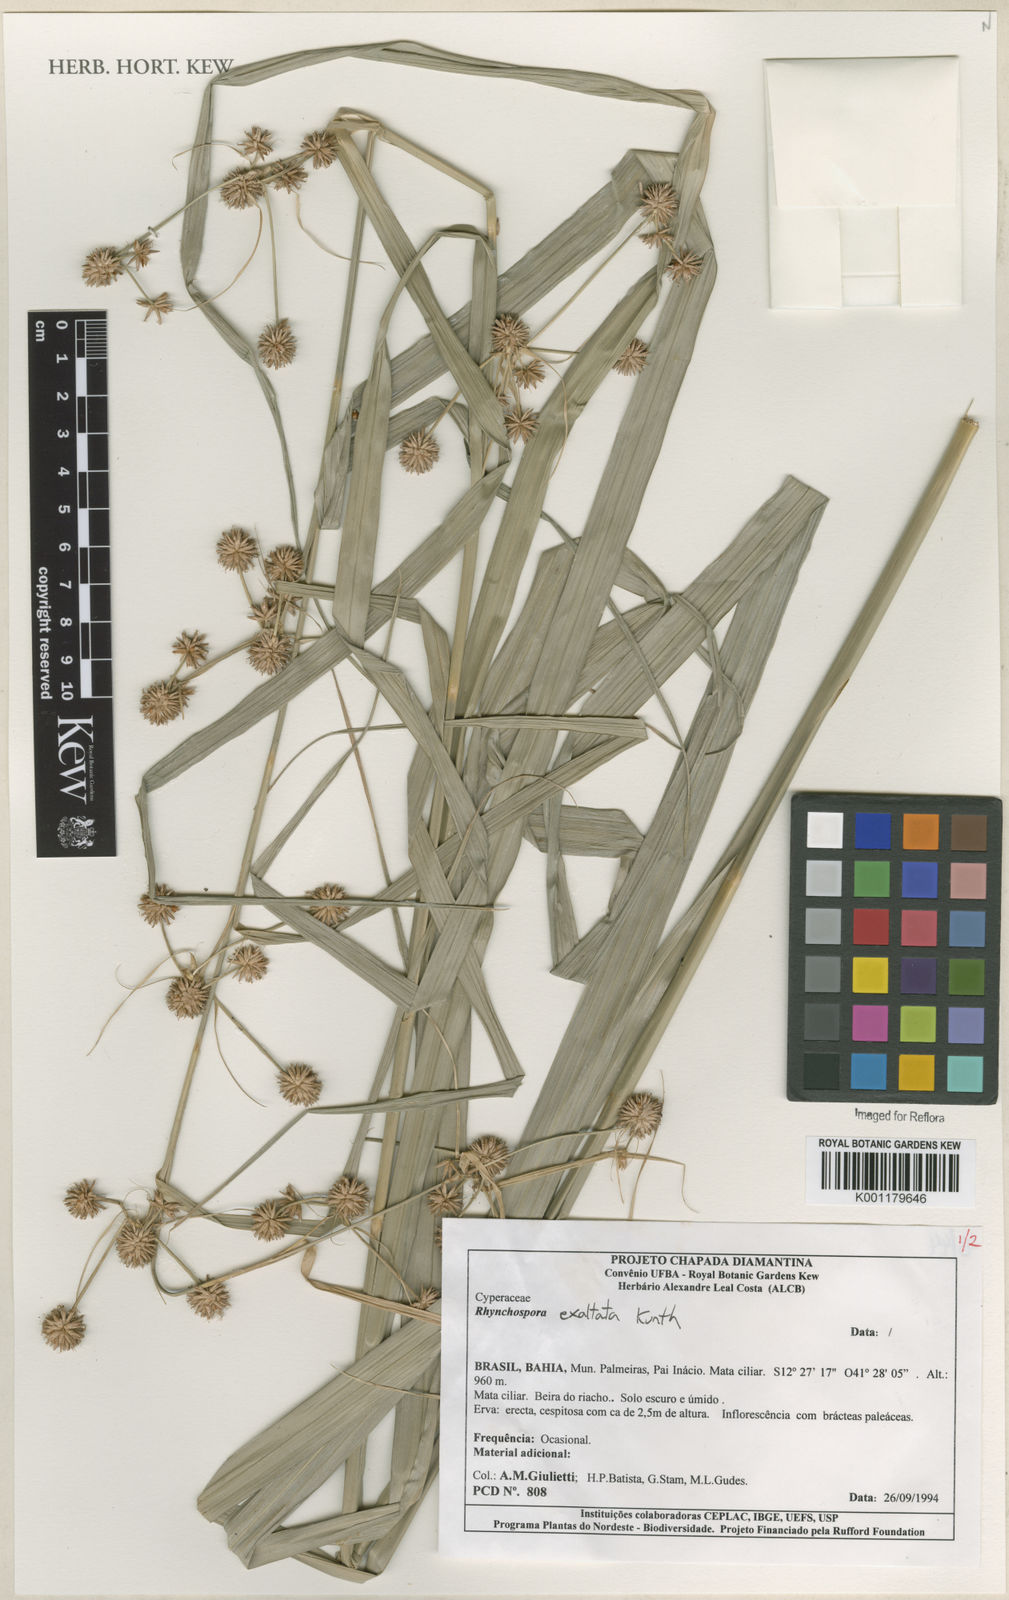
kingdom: Plantae
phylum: Tracheophyta
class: Liliopsida
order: Poales
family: Cyperaceae
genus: Rhynchospora
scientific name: Rhynchospora exaltata
